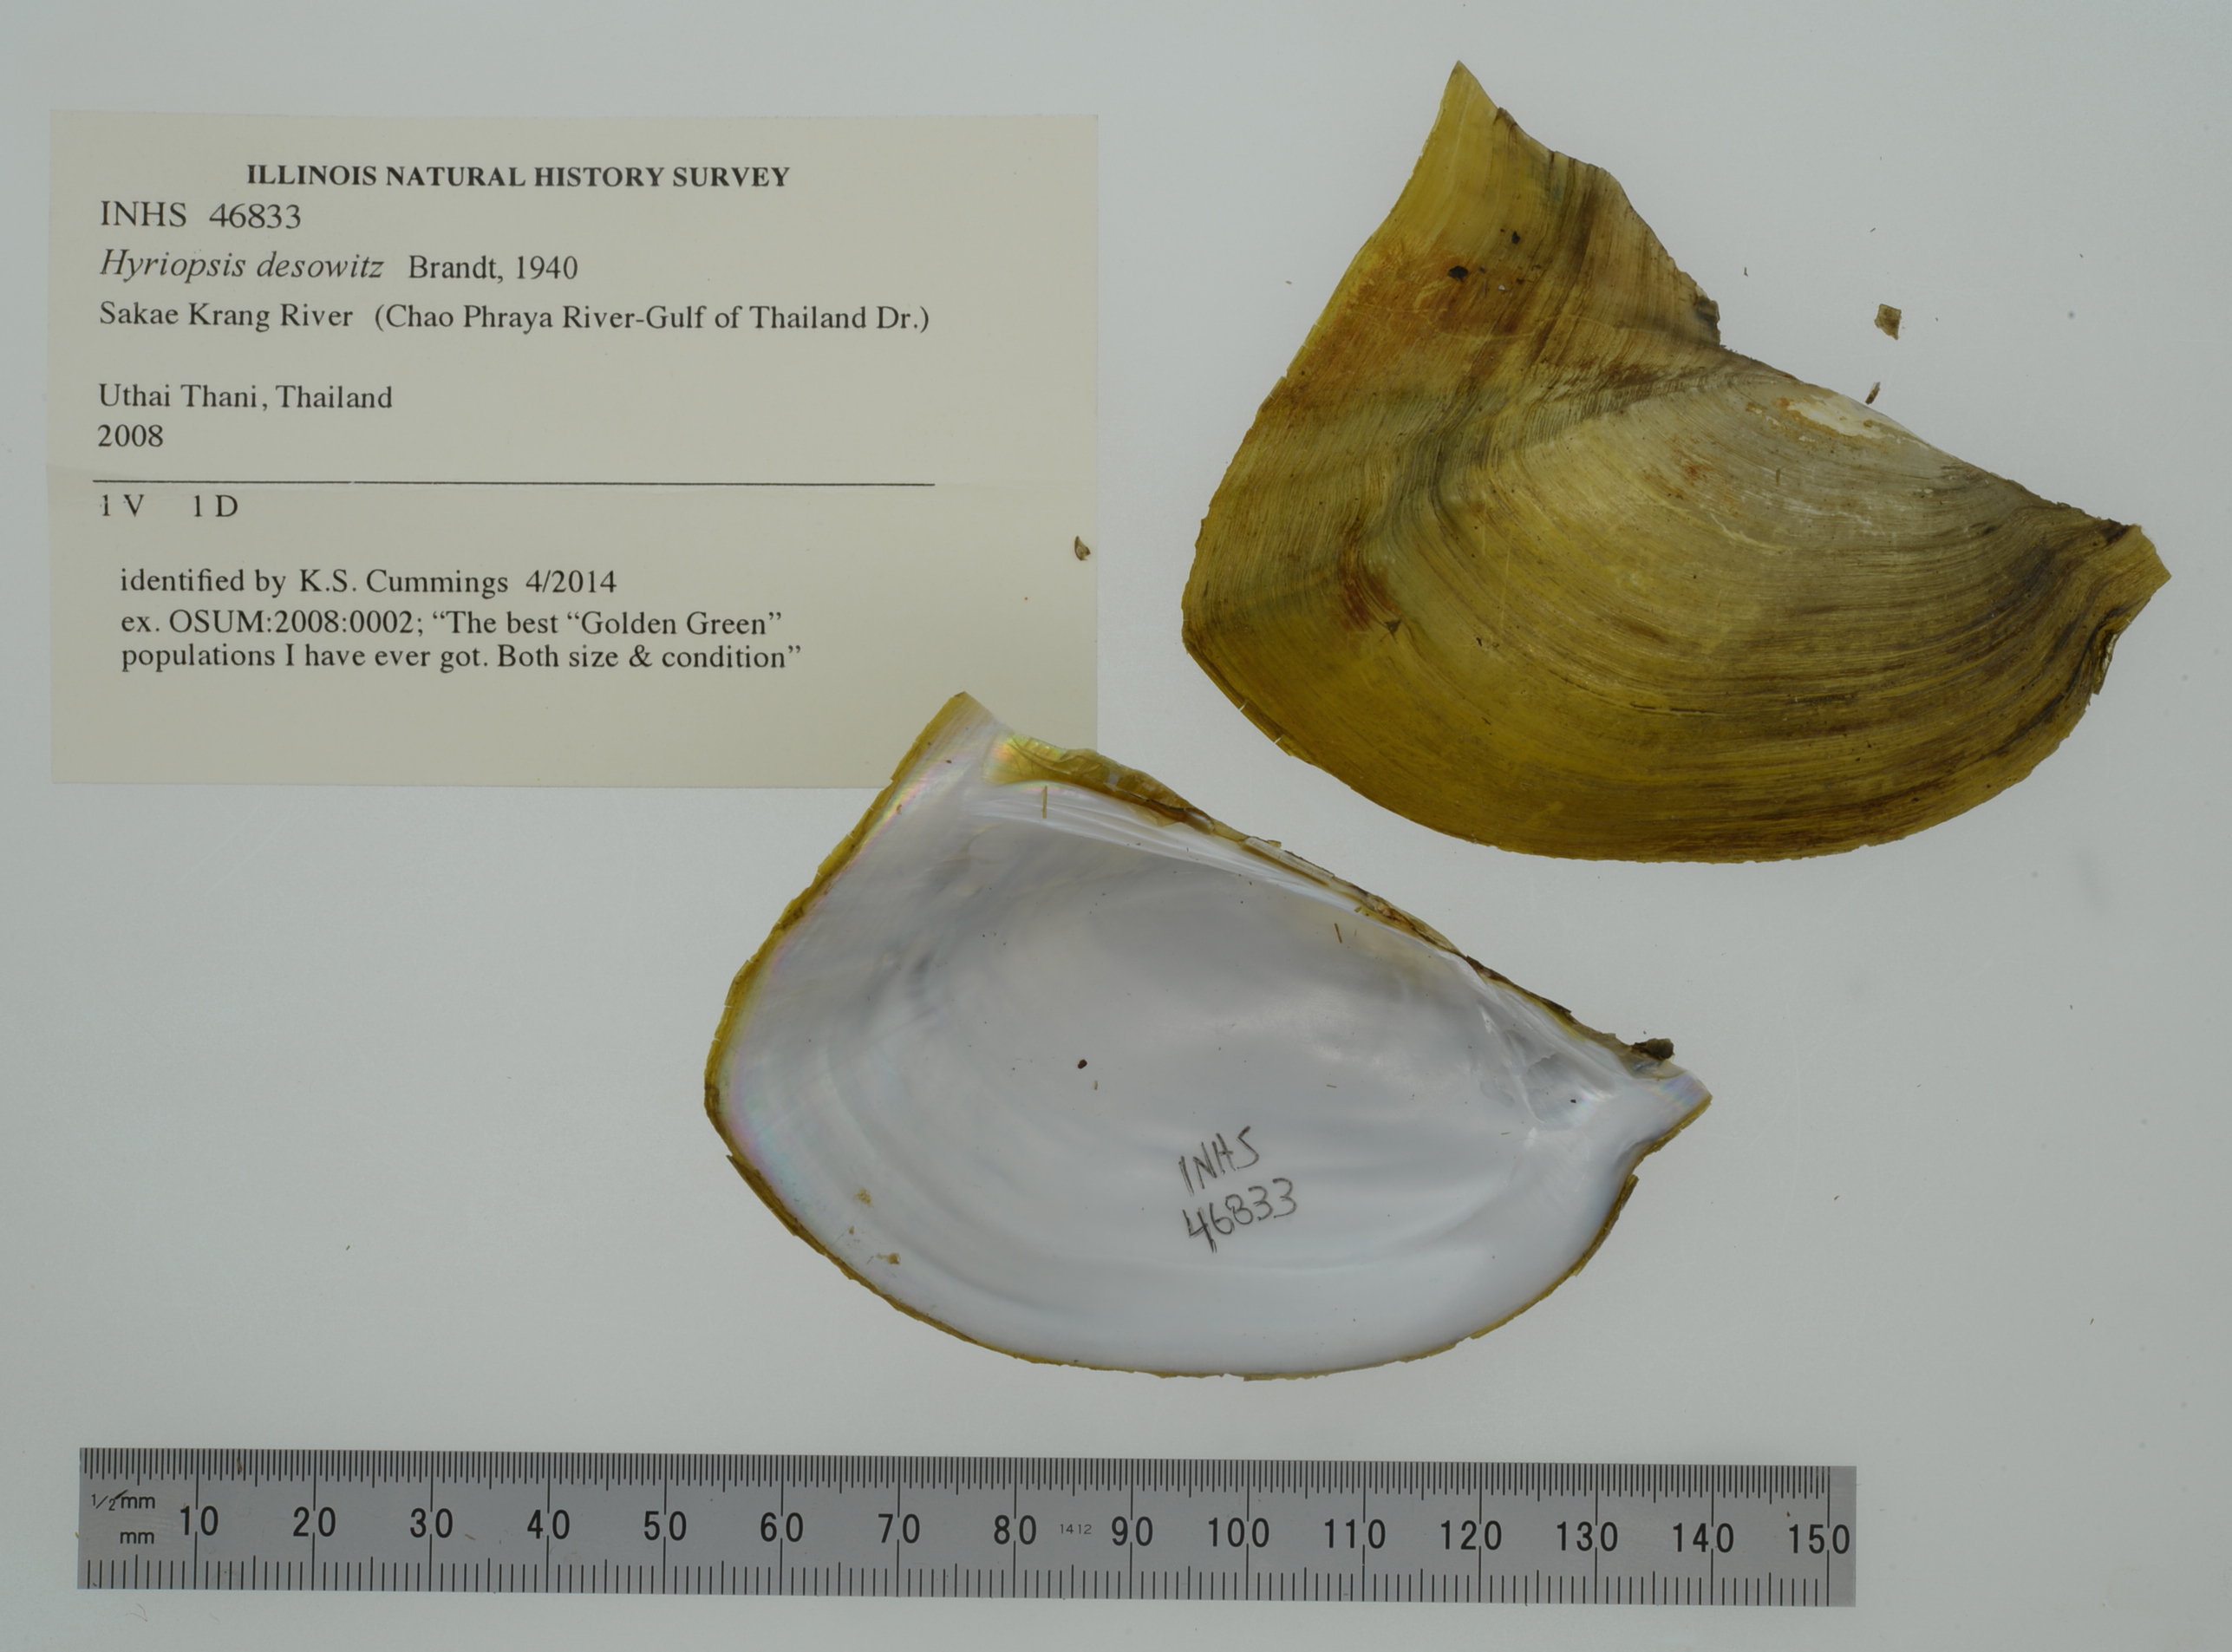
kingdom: Animalia
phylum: Mollusca
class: Bivalvia
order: Unionida
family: Unionidae
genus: Hyriopsis
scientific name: Hyriopsis desowitzi
